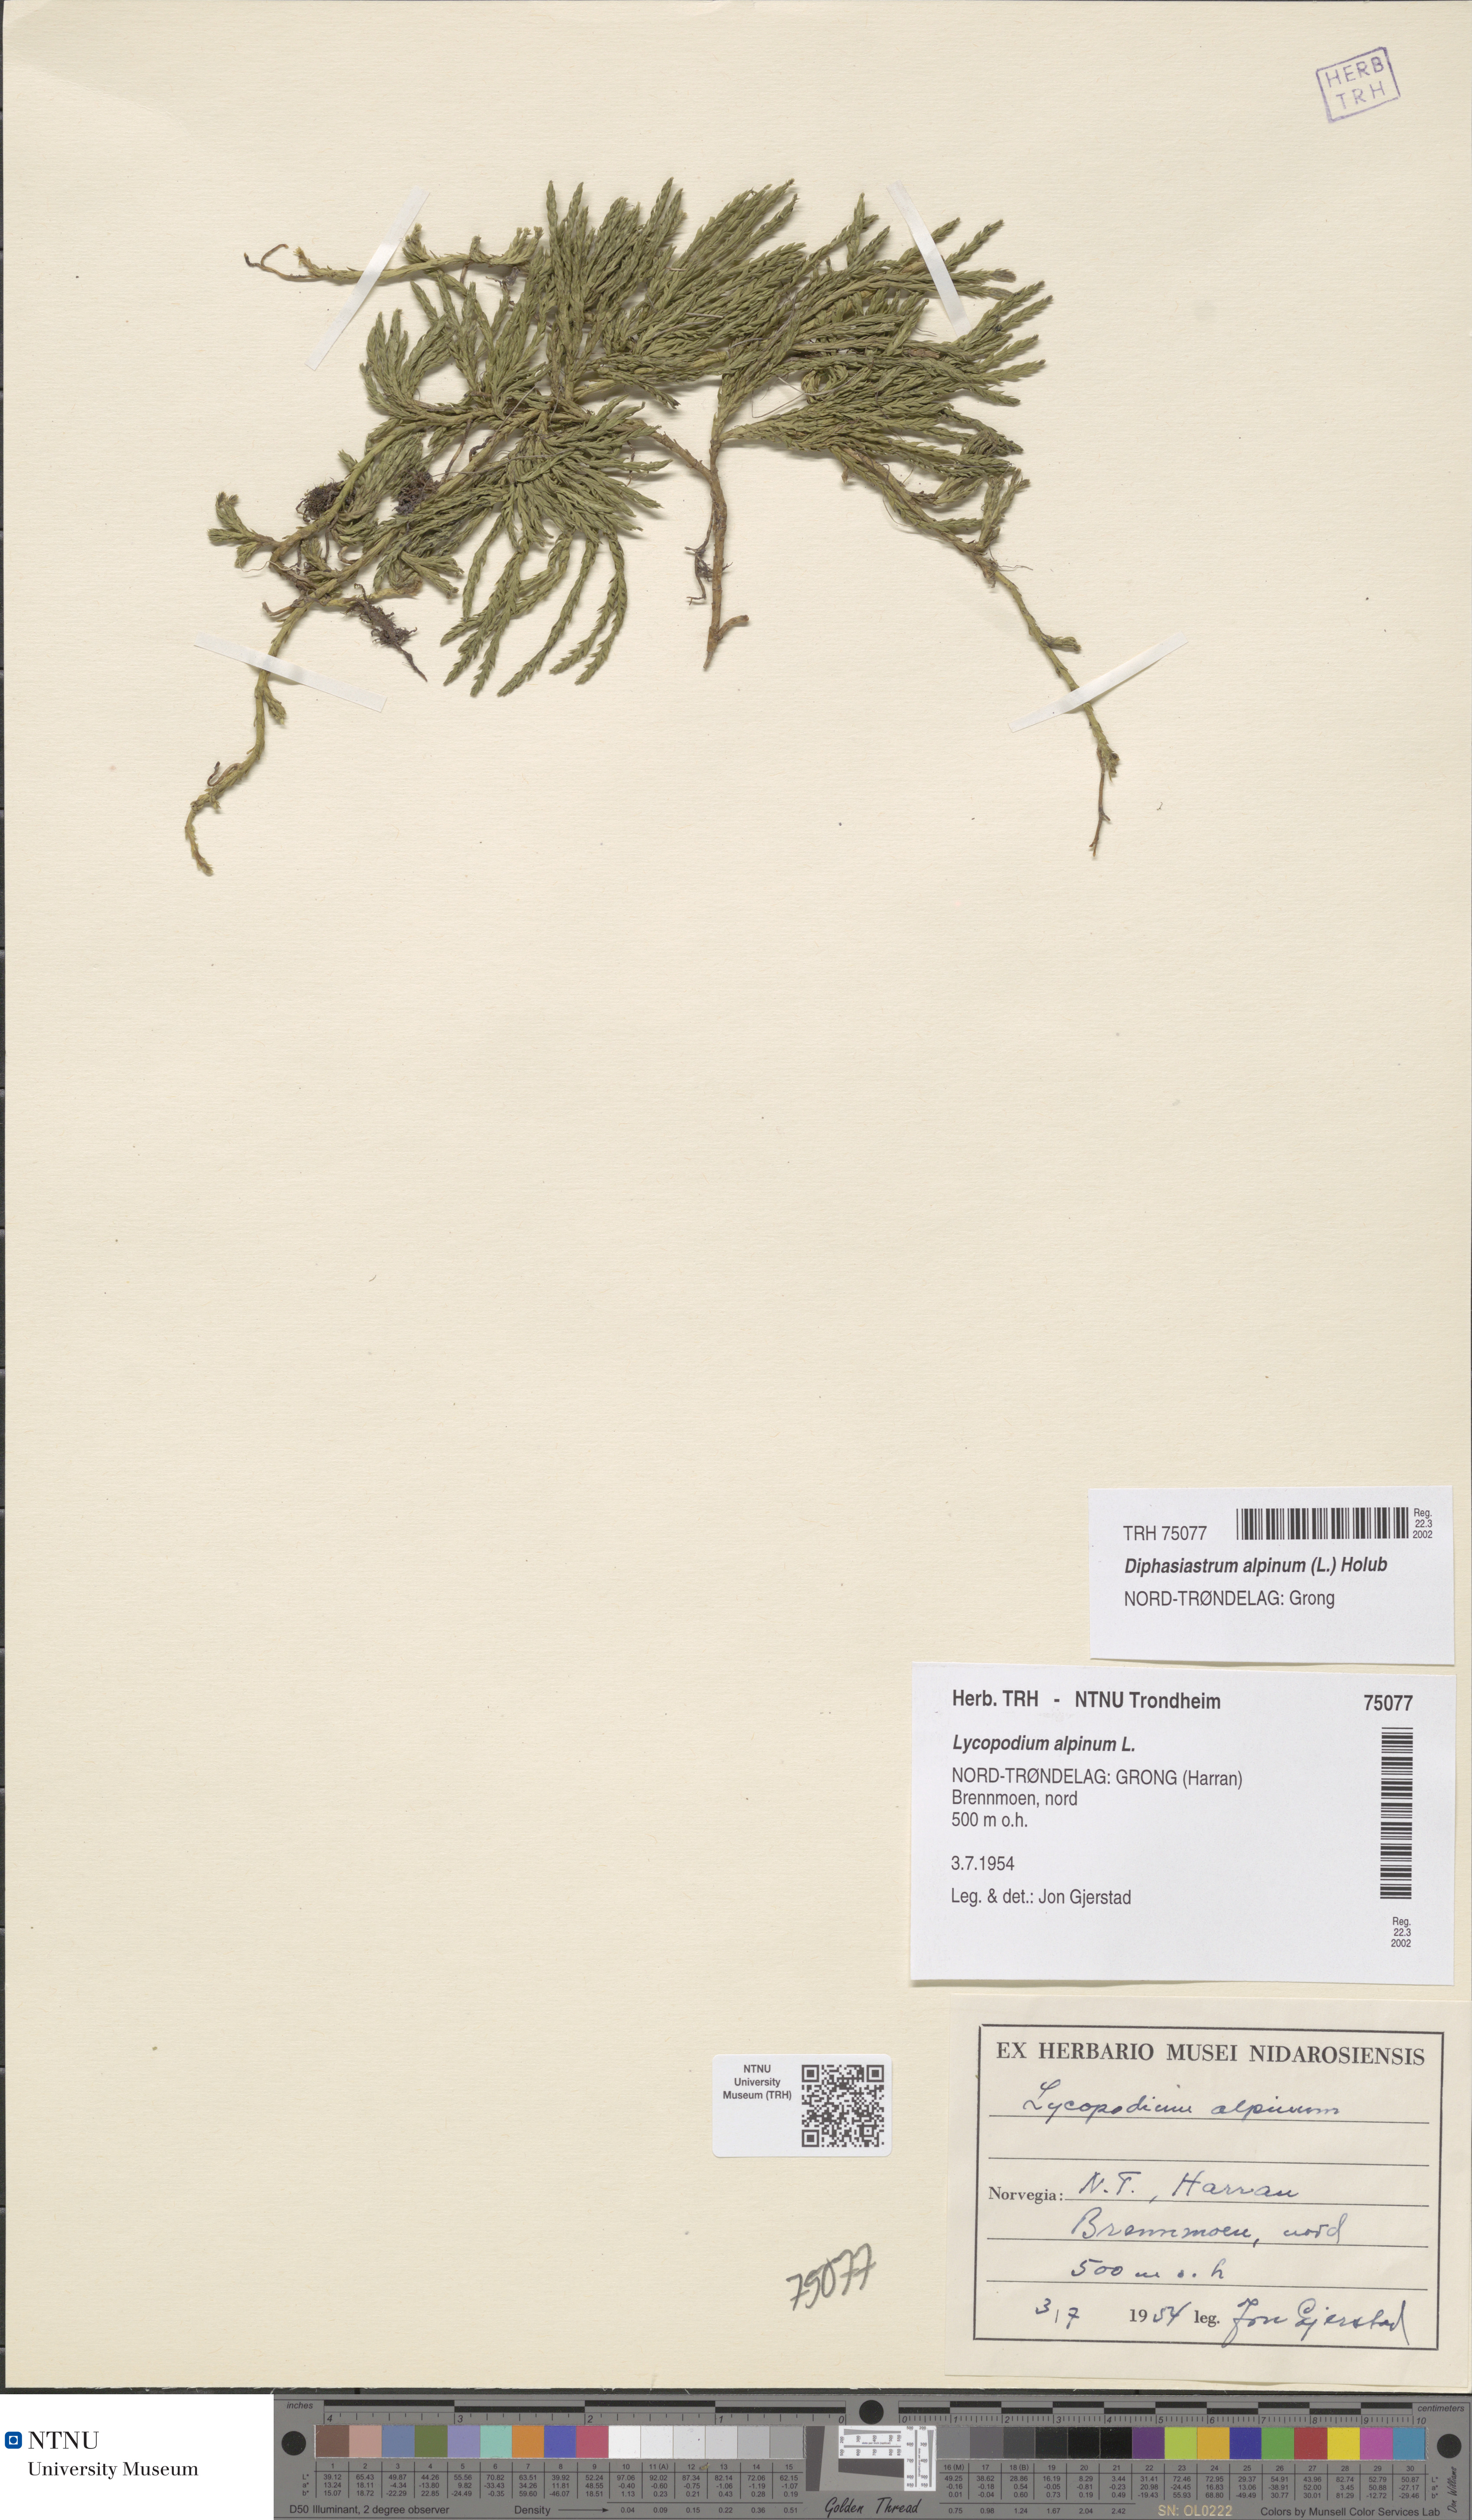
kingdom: Plantae
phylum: Tracheophyta
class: Lycopodiopsida
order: Lycopodiales
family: Lycopodiaceae
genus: Diphasiastrum
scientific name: Diphasiastrum alpinum
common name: Alpine clubmoss
